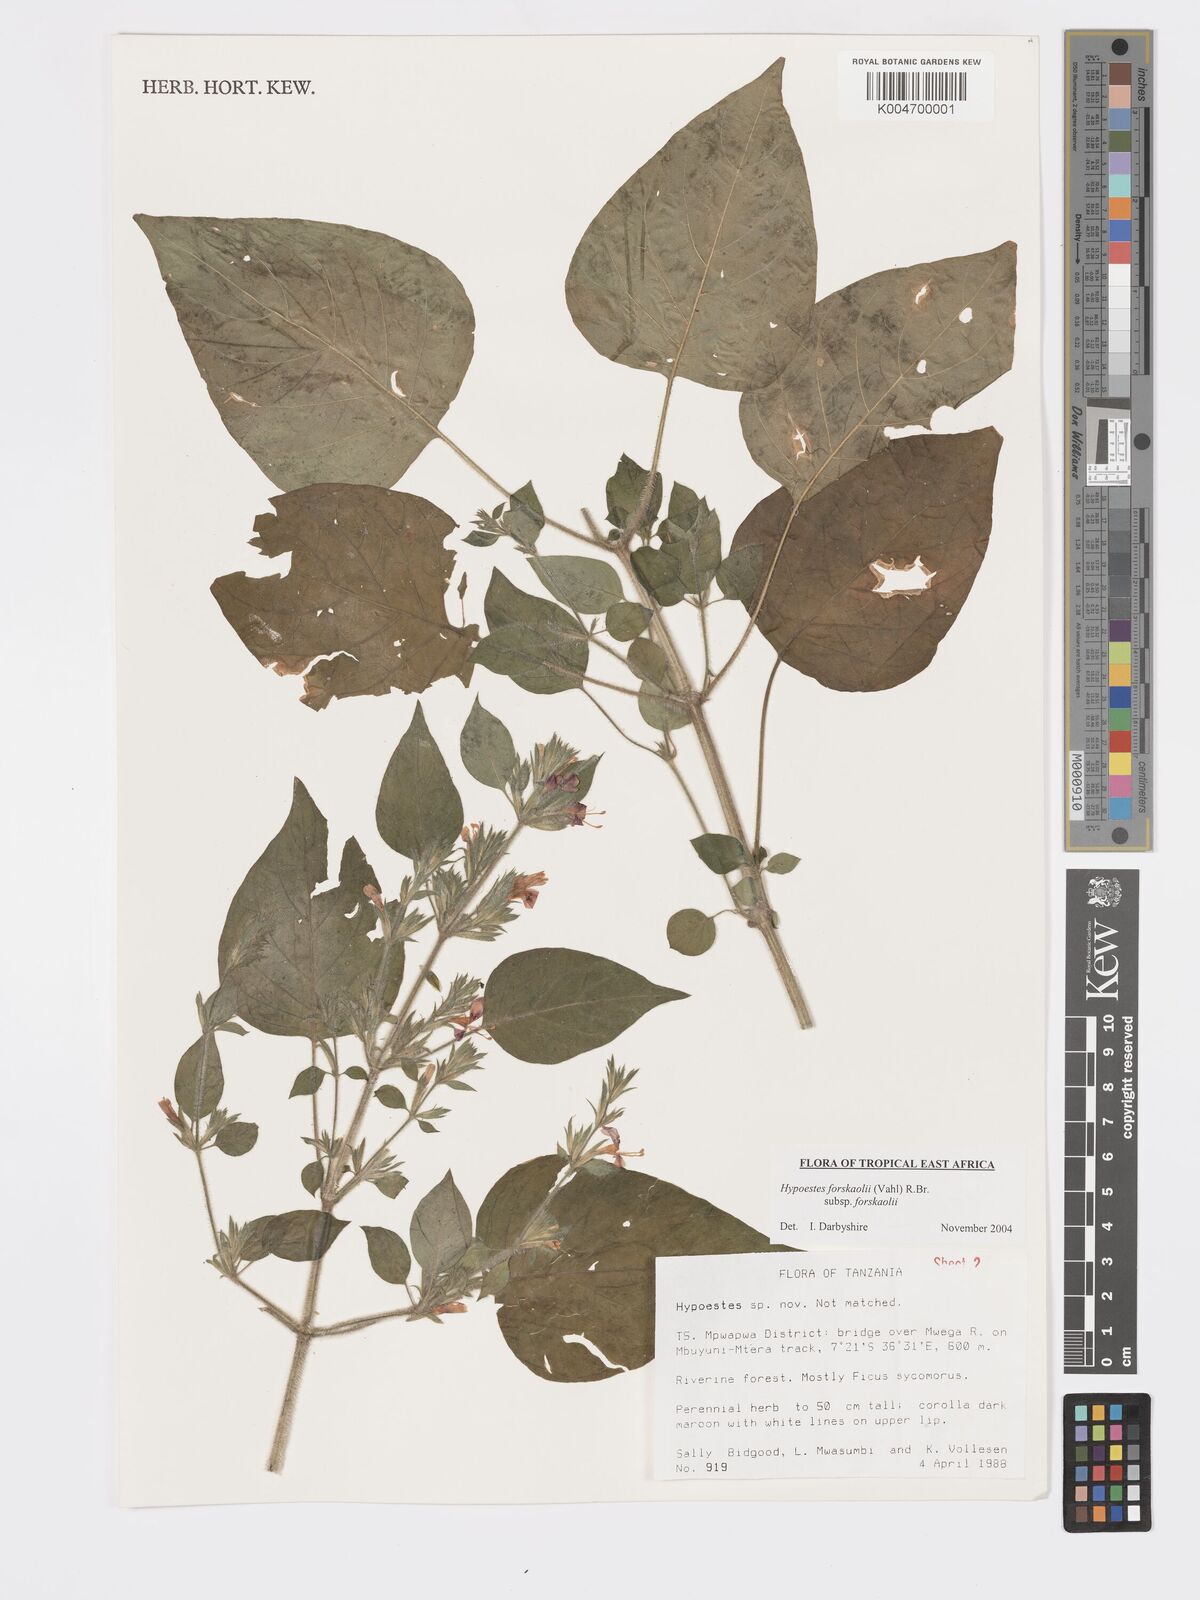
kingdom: Plantae
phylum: Tracheophyta
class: Magnoliopsida
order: Lamiales
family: Acanthaceae
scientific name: Acanthaceae
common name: Acanthaceae
